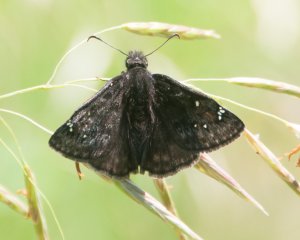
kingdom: Animalia
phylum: Arthropoda
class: Insecta
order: Lepidoptera
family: Hesperiidae
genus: Gesta
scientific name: Gesta
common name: Columbine Duskywing
